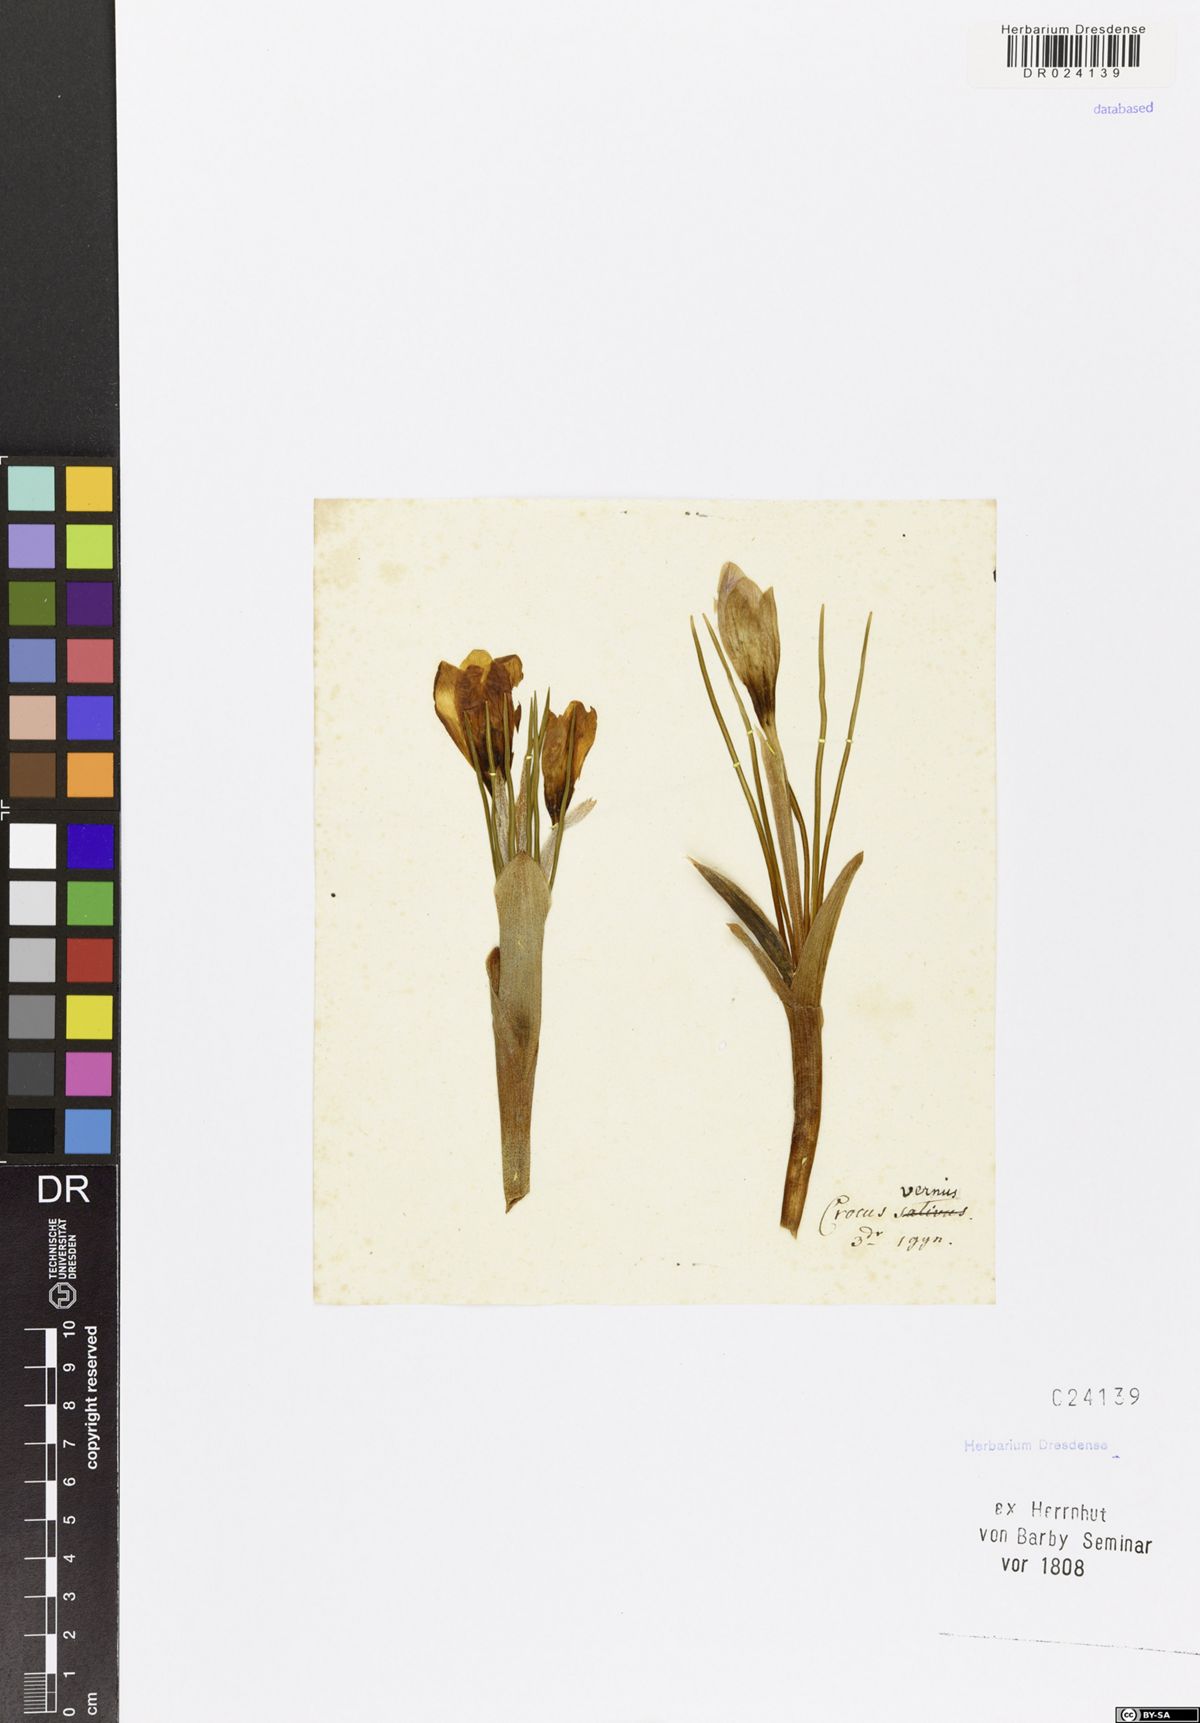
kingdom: Plantae
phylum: Tracheophyta
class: Liliopsida
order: Asparagales
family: Iridaceae
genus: Crocus
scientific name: Crocus flavus
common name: Yellow crocus
